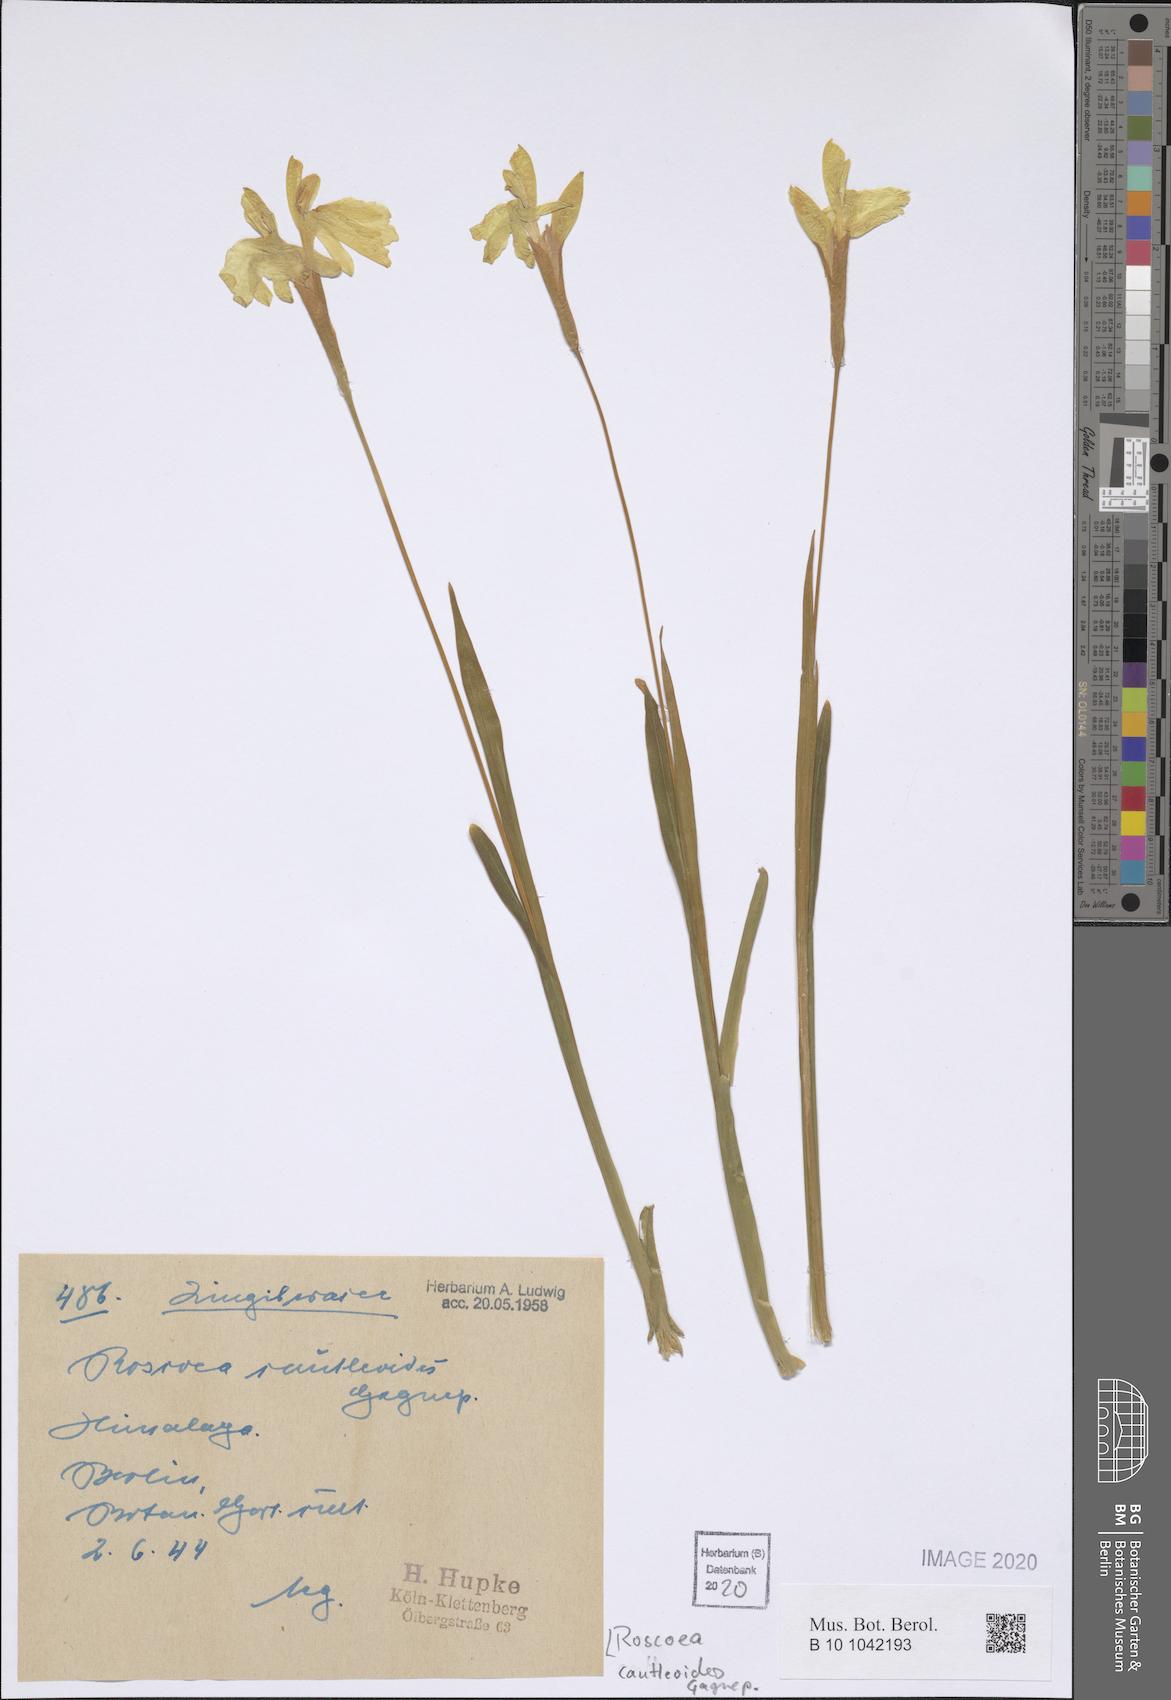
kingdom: Plantae
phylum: Tracheophyta
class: Liliopsida
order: Zingiberales
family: Zingiberaceae
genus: Roscoea
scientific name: Roscoea cautleyoides
